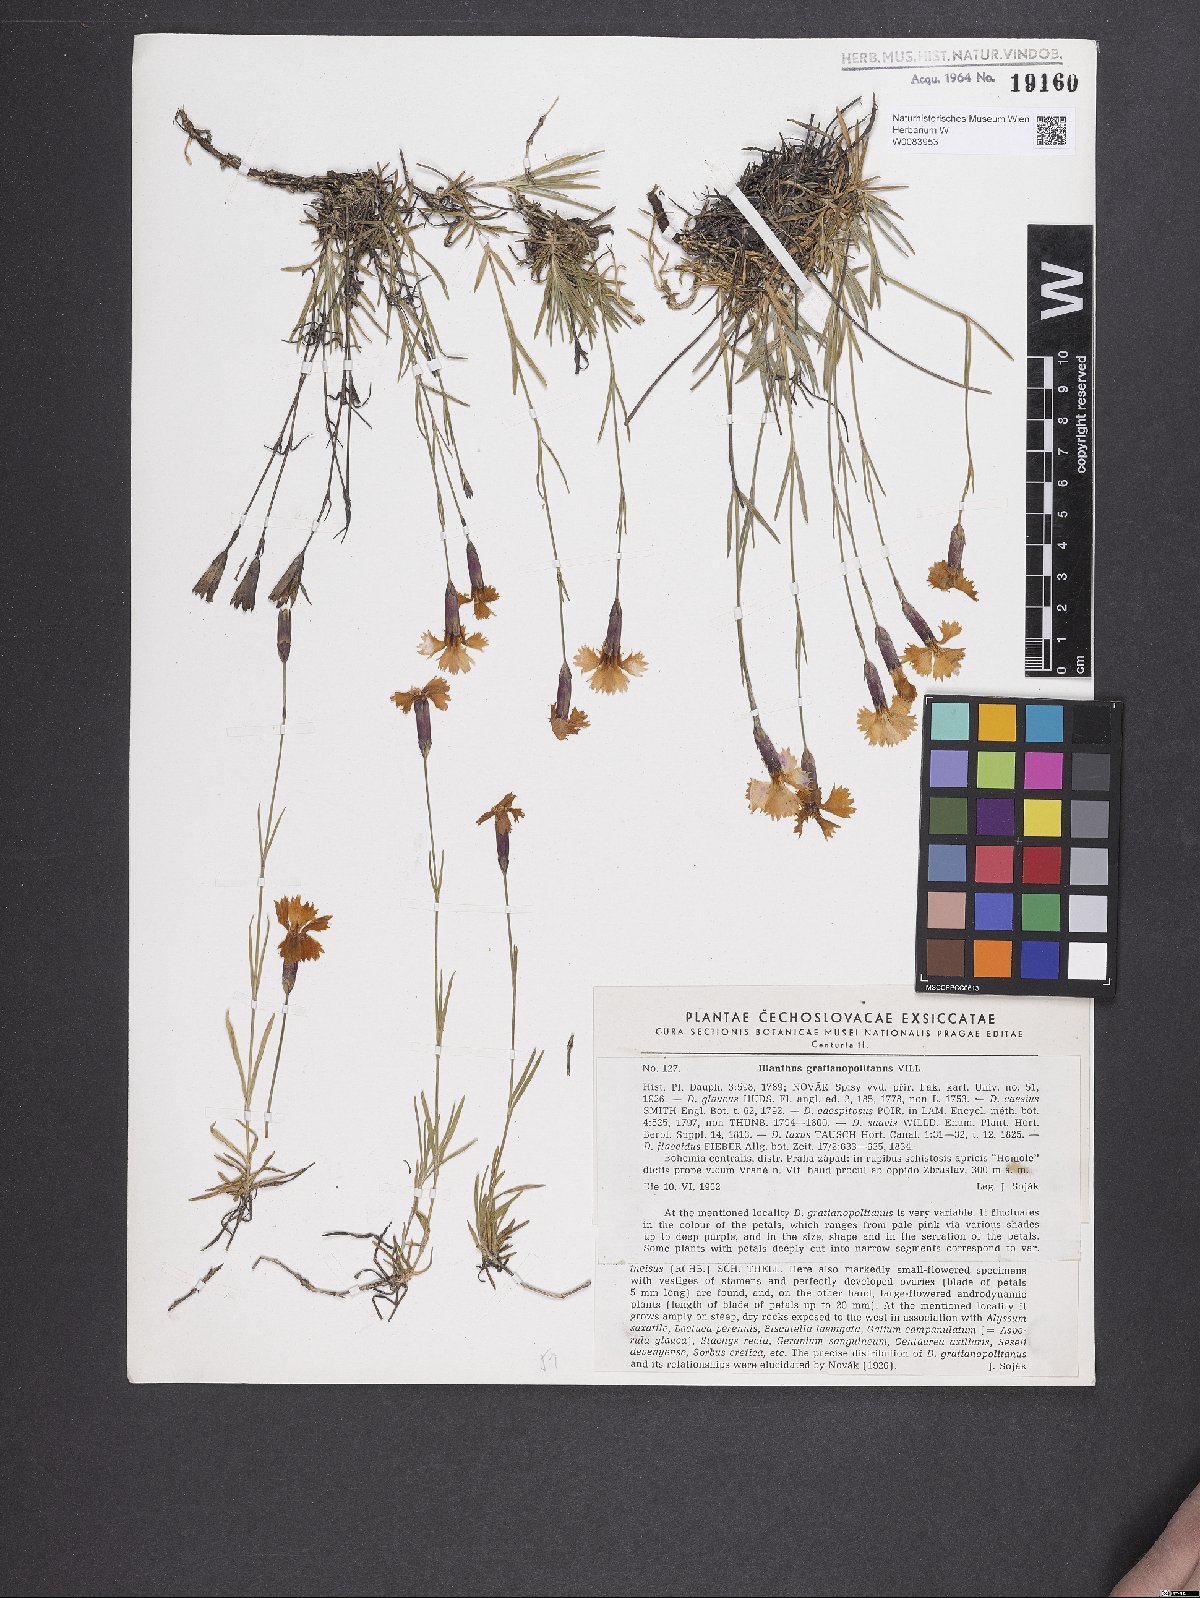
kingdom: Plantae
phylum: Tracheophyta
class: Magnoliopsida
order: Caryophyllales
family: Caryophyllaceae
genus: Dianthus
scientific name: Dianthus gratianopolitanus
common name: Cheddar pink
